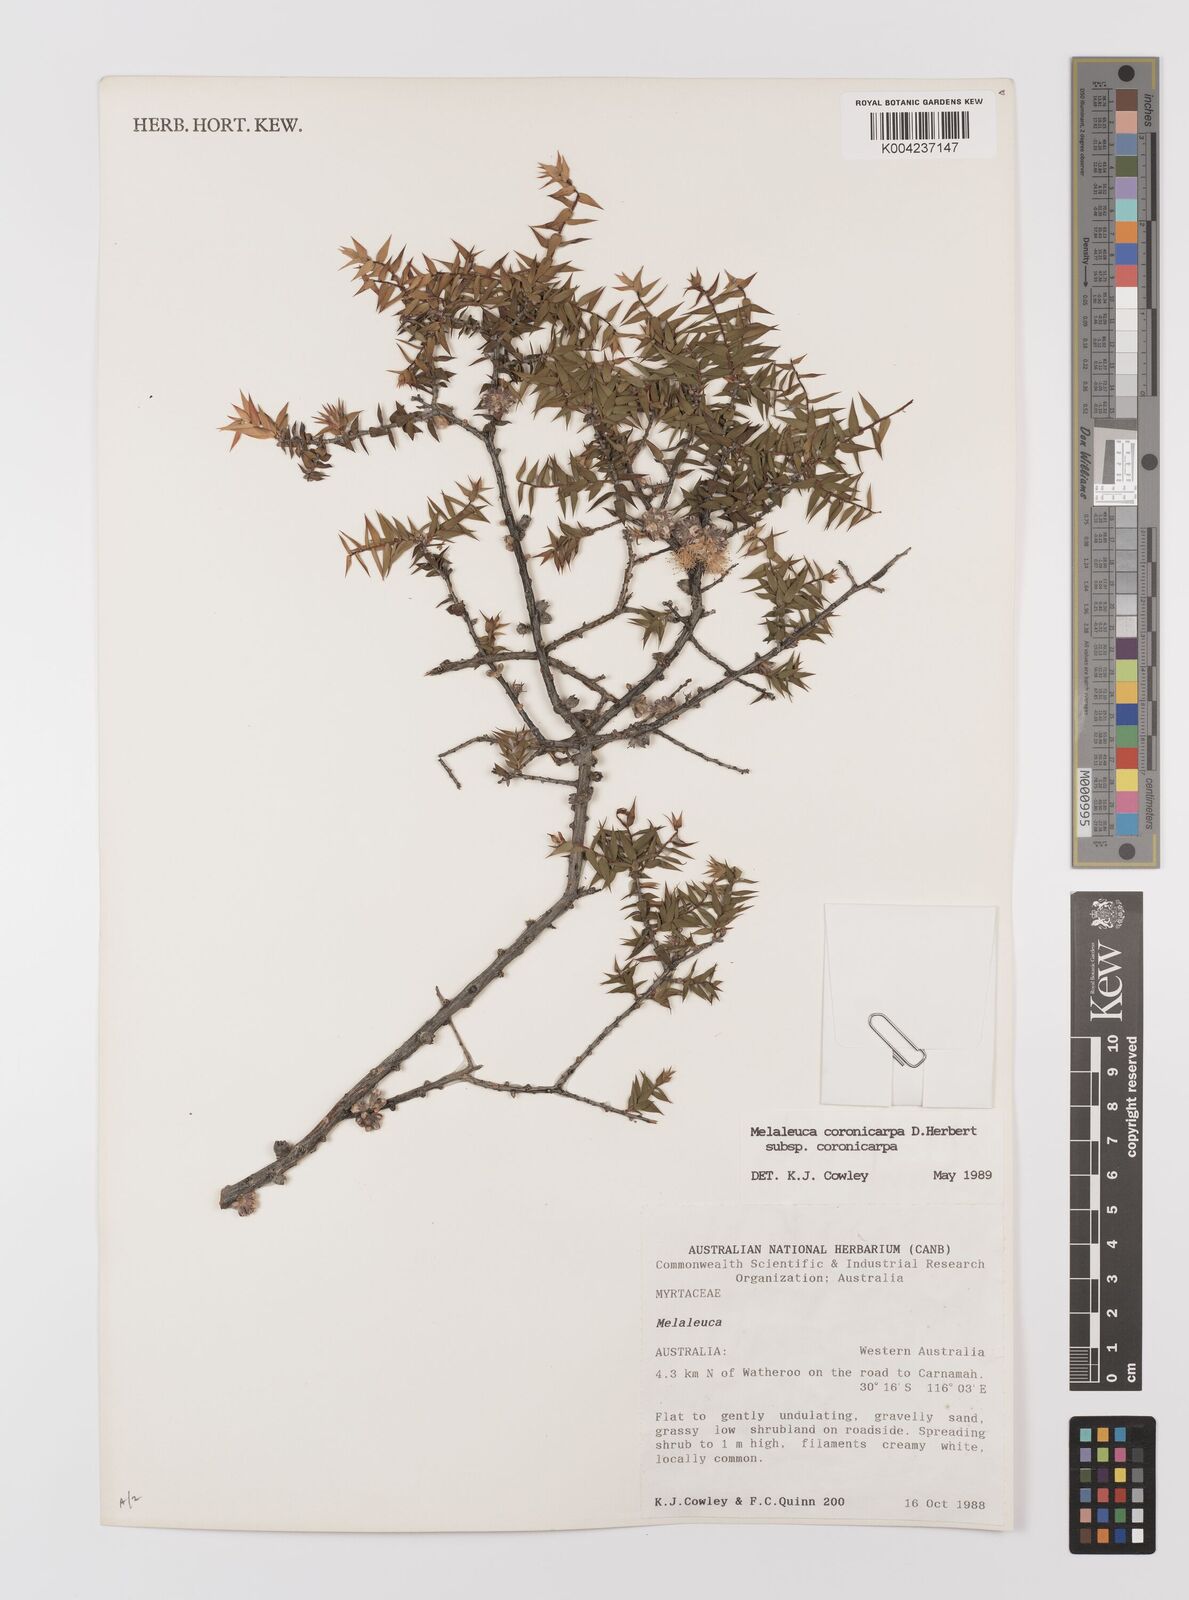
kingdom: Plantae
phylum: Tracheophyta
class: Magnoliopsida
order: Myrtales
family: Myrtaceae
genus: Melaleuca
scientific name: Melaleuca coronicarpa
